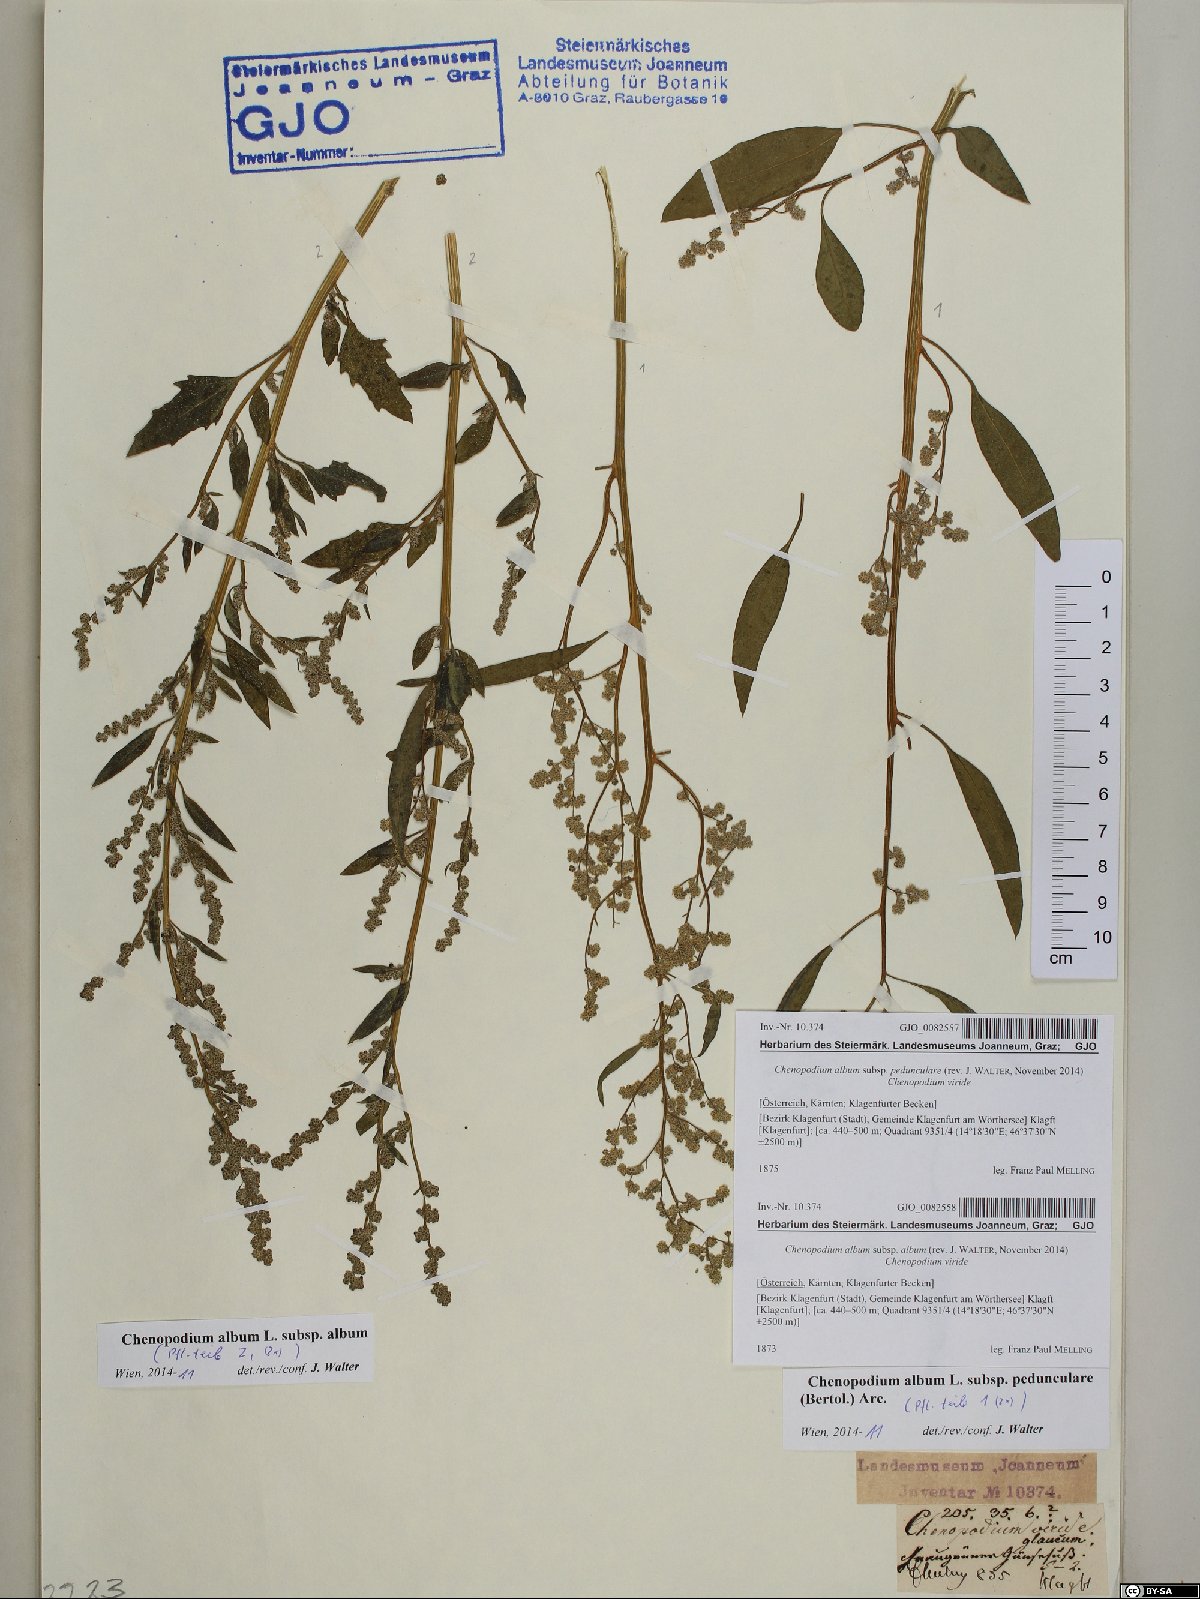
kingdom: Plantae
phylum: Tracheophyta
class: Magnoliopsida
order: Caryophyllales
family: Amaranthaceae
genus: Chenopodium
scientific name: Chenopodium album
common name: Fat-hen
